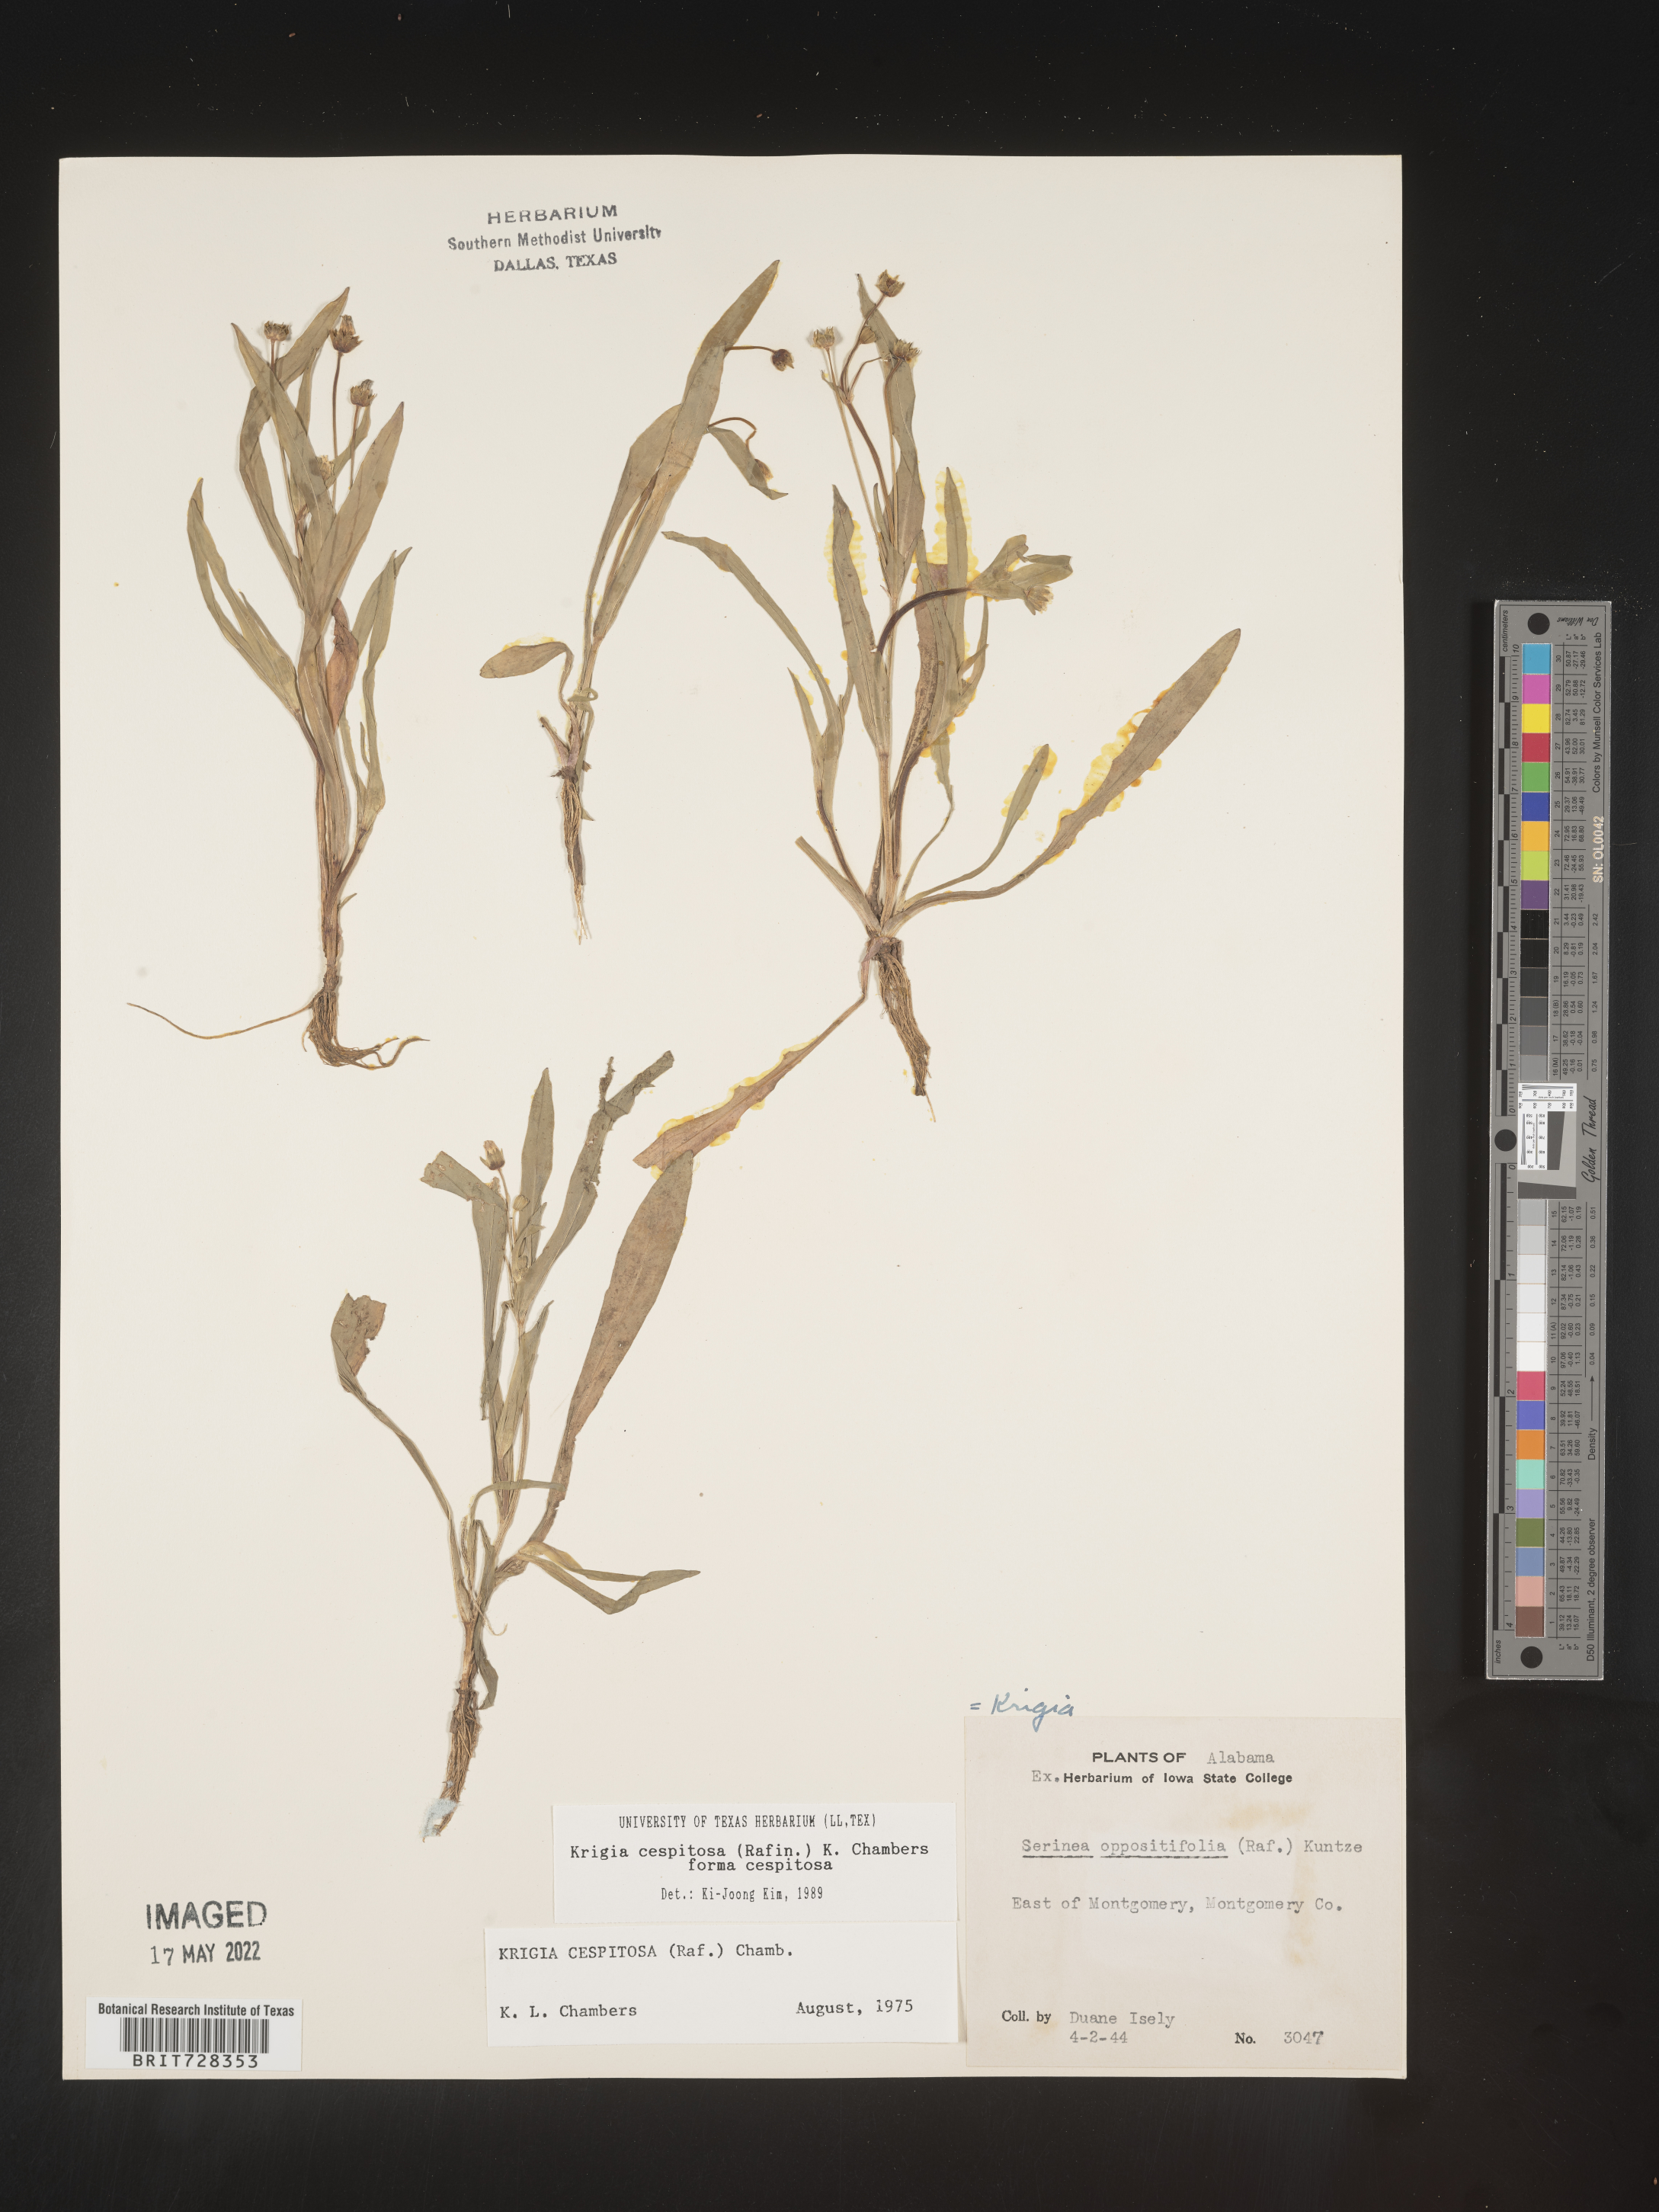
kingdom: Plantae
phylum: Tracheophyta
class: Magnoliopsida
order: Asterales
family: Asteraceae
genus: Krigia
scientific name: Krigia caespitosa
